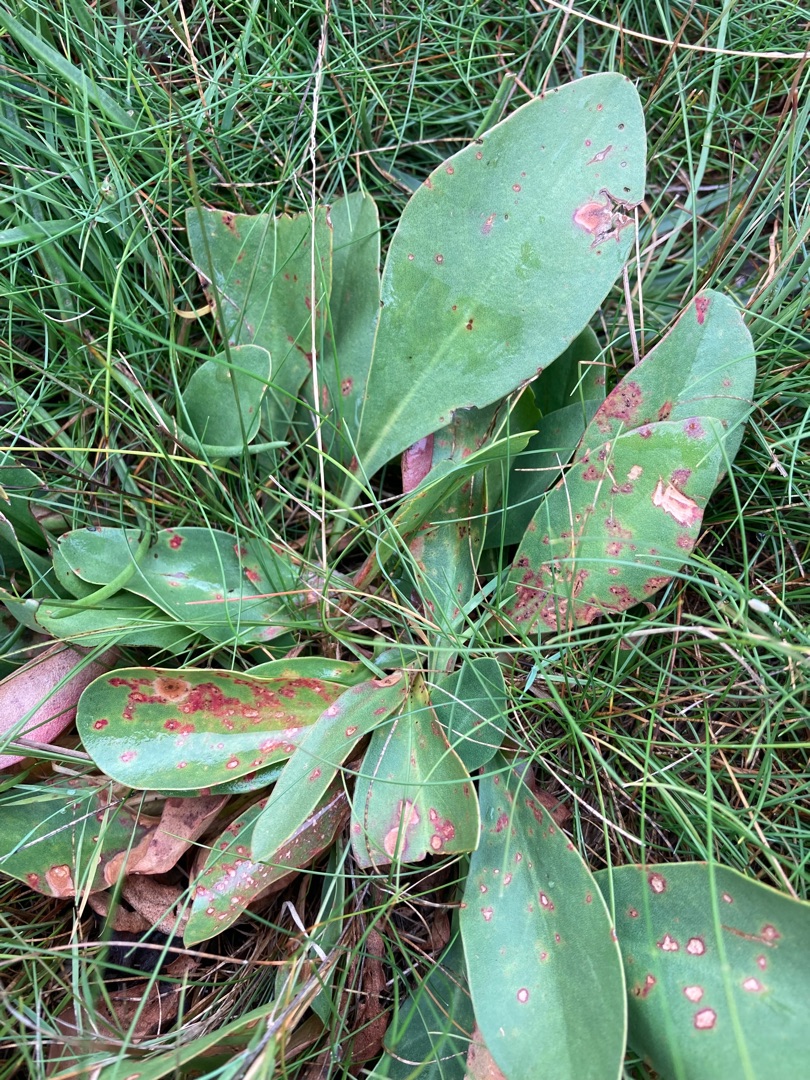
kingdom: Plantae
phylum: Tracheophyta
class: Magnoliopsida
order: Caryophyllales
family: Plumbaginaceae
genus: Limonium
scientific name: Limonium vulgare
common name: Tætblomstret hindebæger
